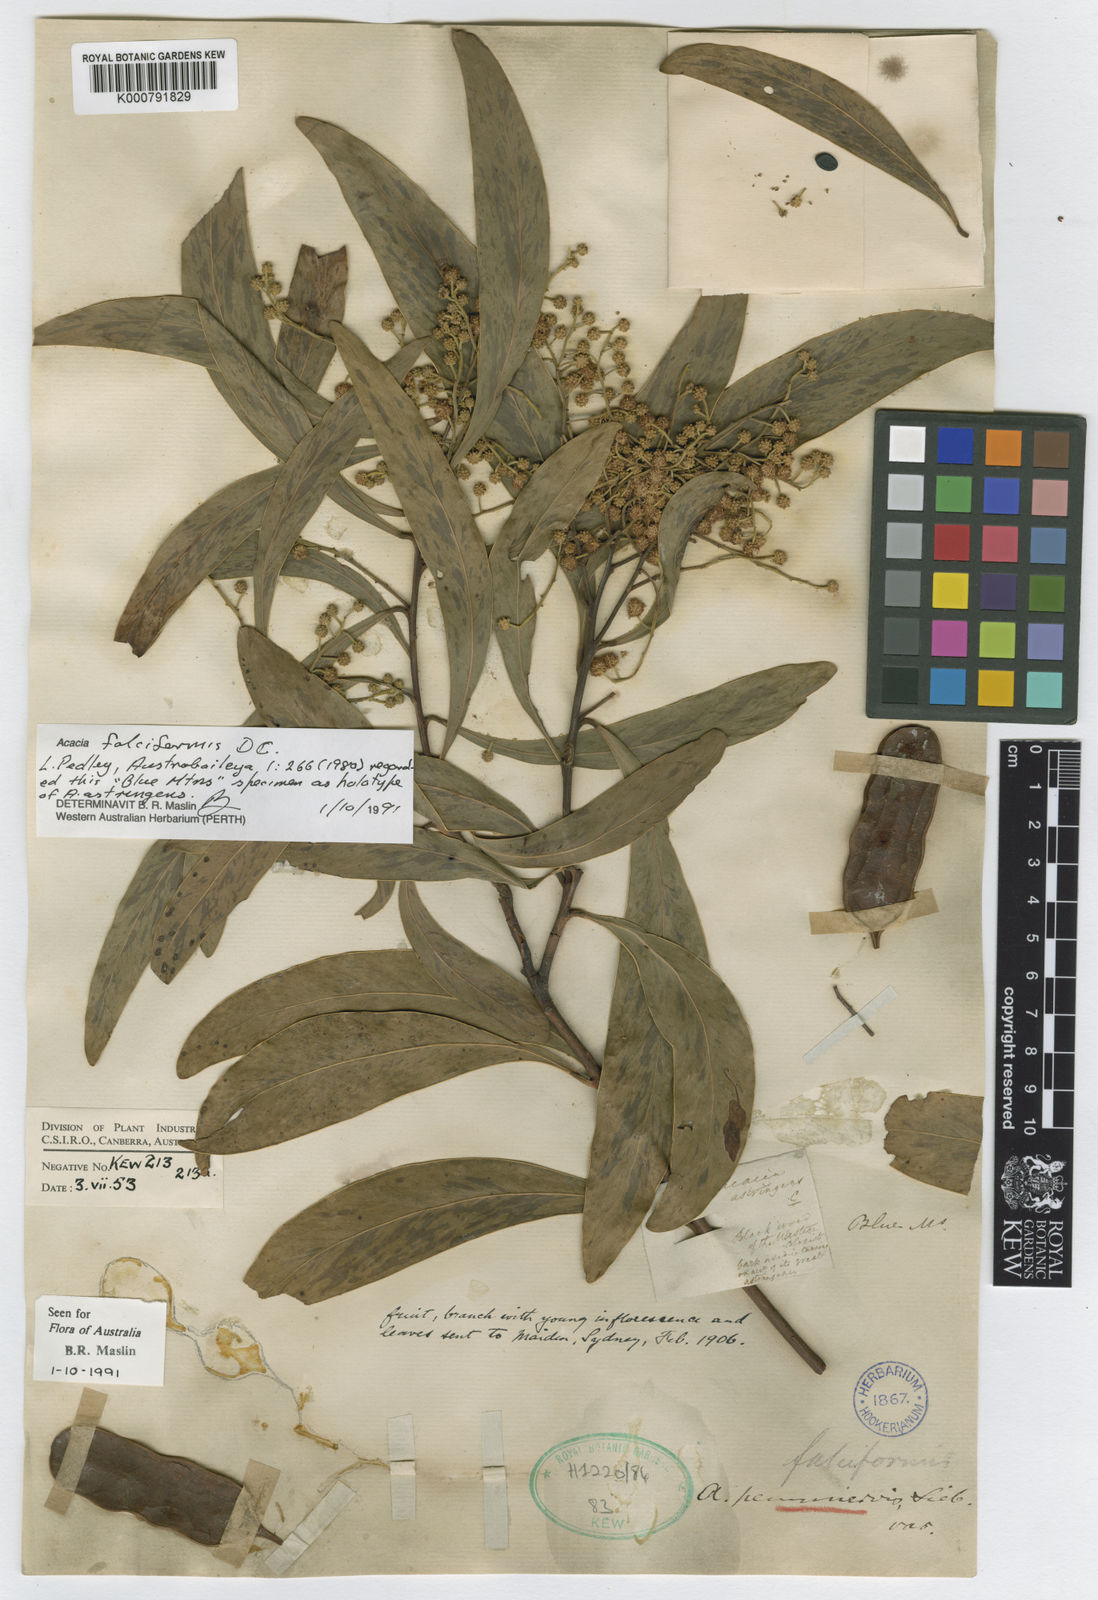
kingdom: Plantae
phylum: Tracheophyta
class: Magnoliopsida
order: Fabales
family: Fabaceae
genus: Acacia
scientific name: Acacia falciformis
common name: Tanning wattle
